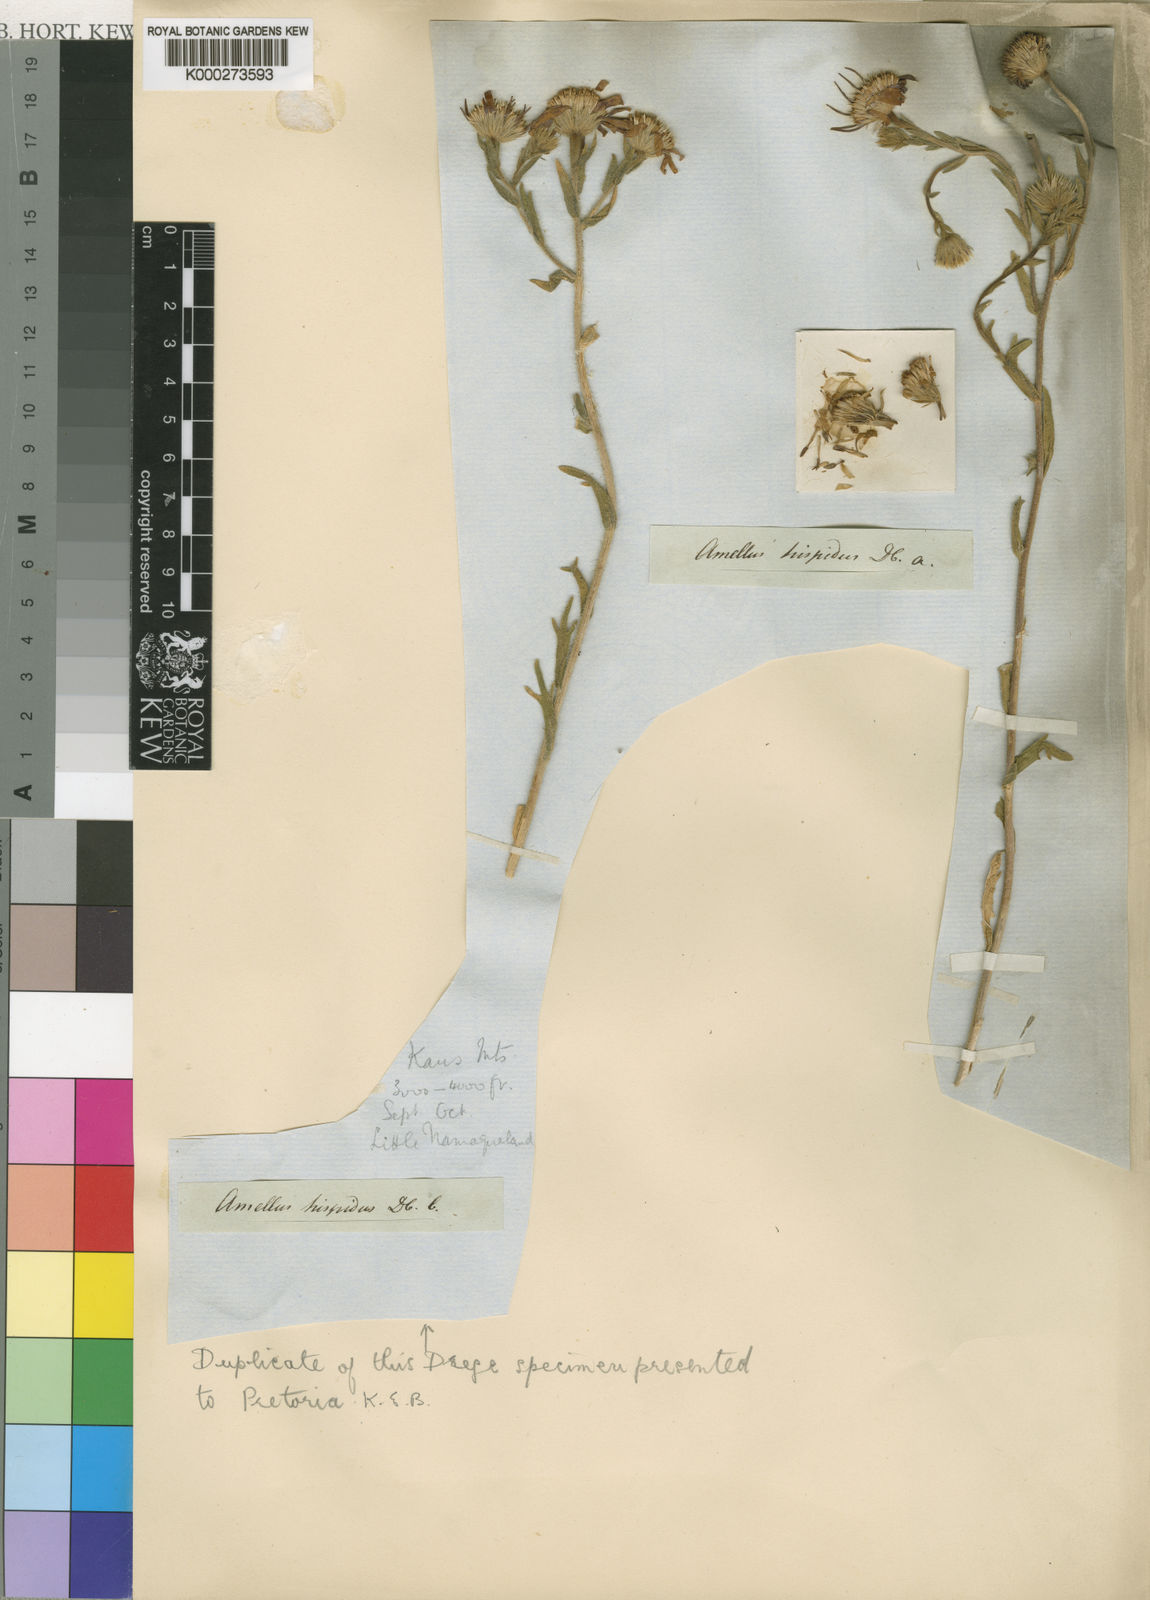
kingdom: Plantae
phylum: Tracheophyta
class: Magnoliopsida
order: Asterales
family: Asteraceae
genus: Amellus
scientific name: Amellus alternifolius
